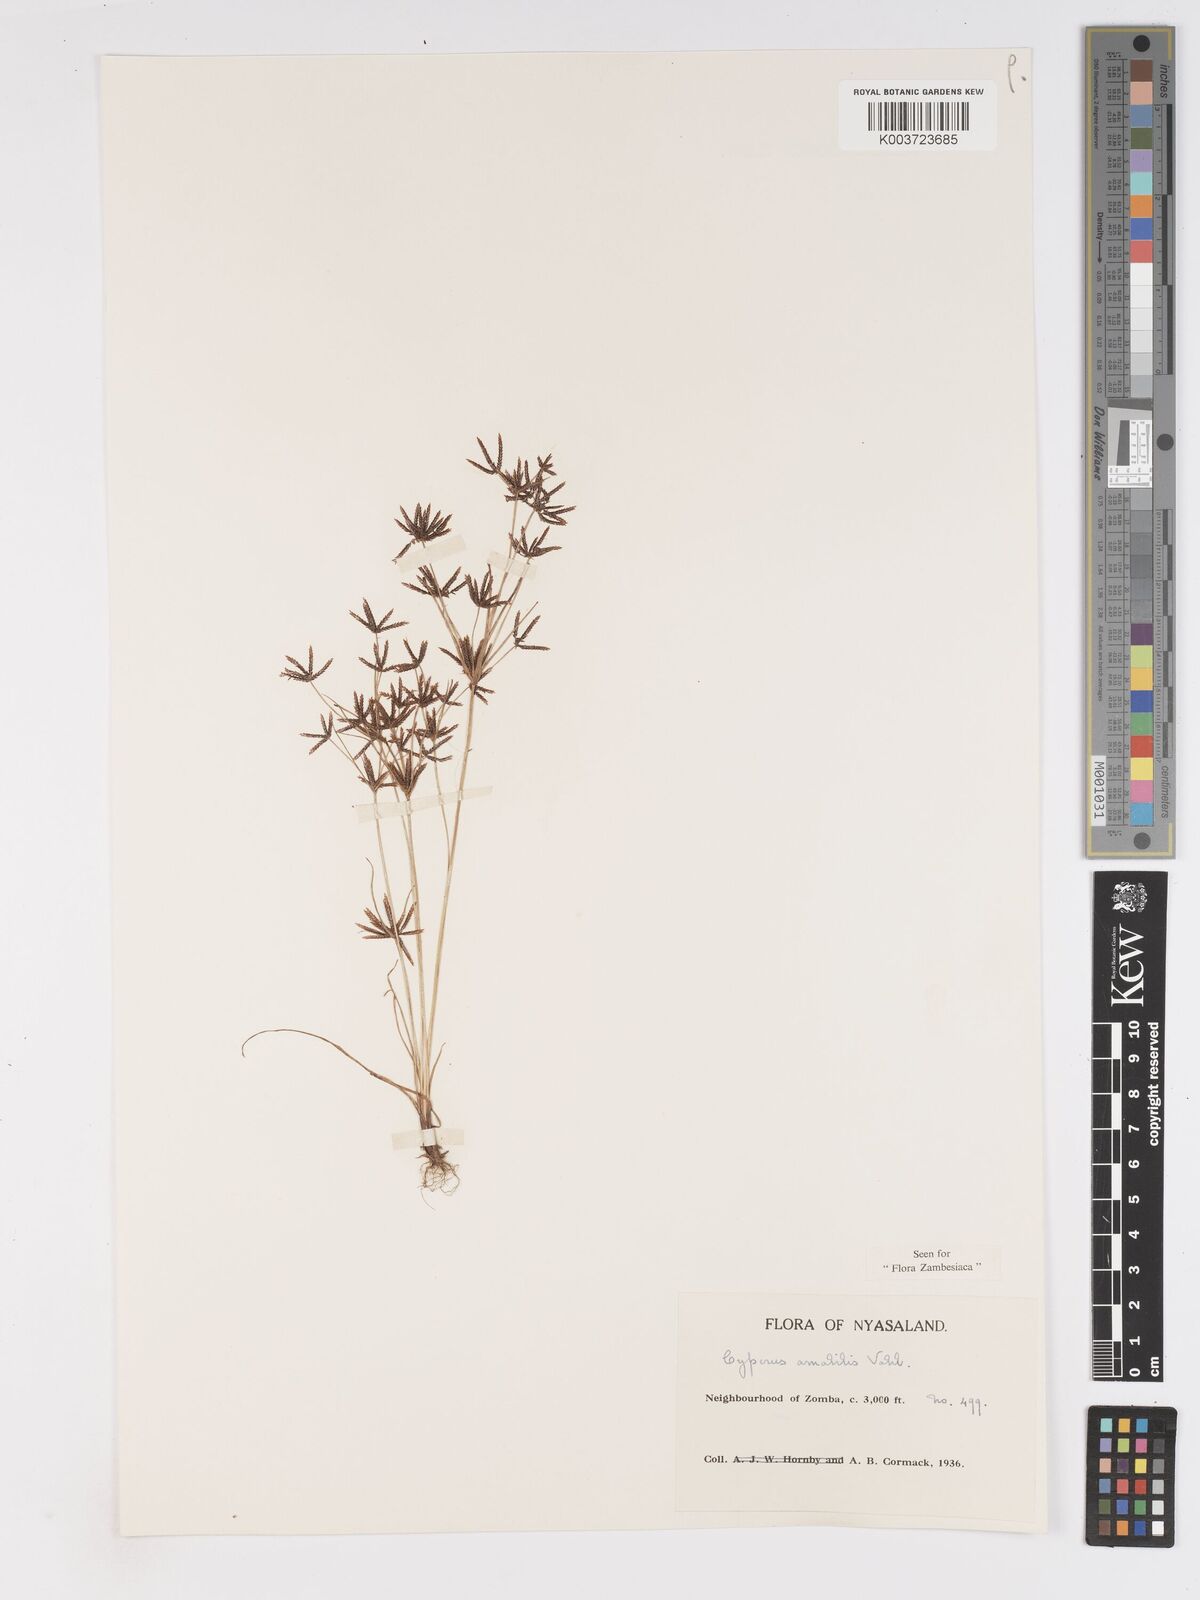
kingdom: Plantae
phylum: Tracheophyta
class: Liliopsida
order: Poales
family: Cyperaceae
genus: Cyperus
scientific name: Cyperus amabilis
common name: Foothill flat sedge
